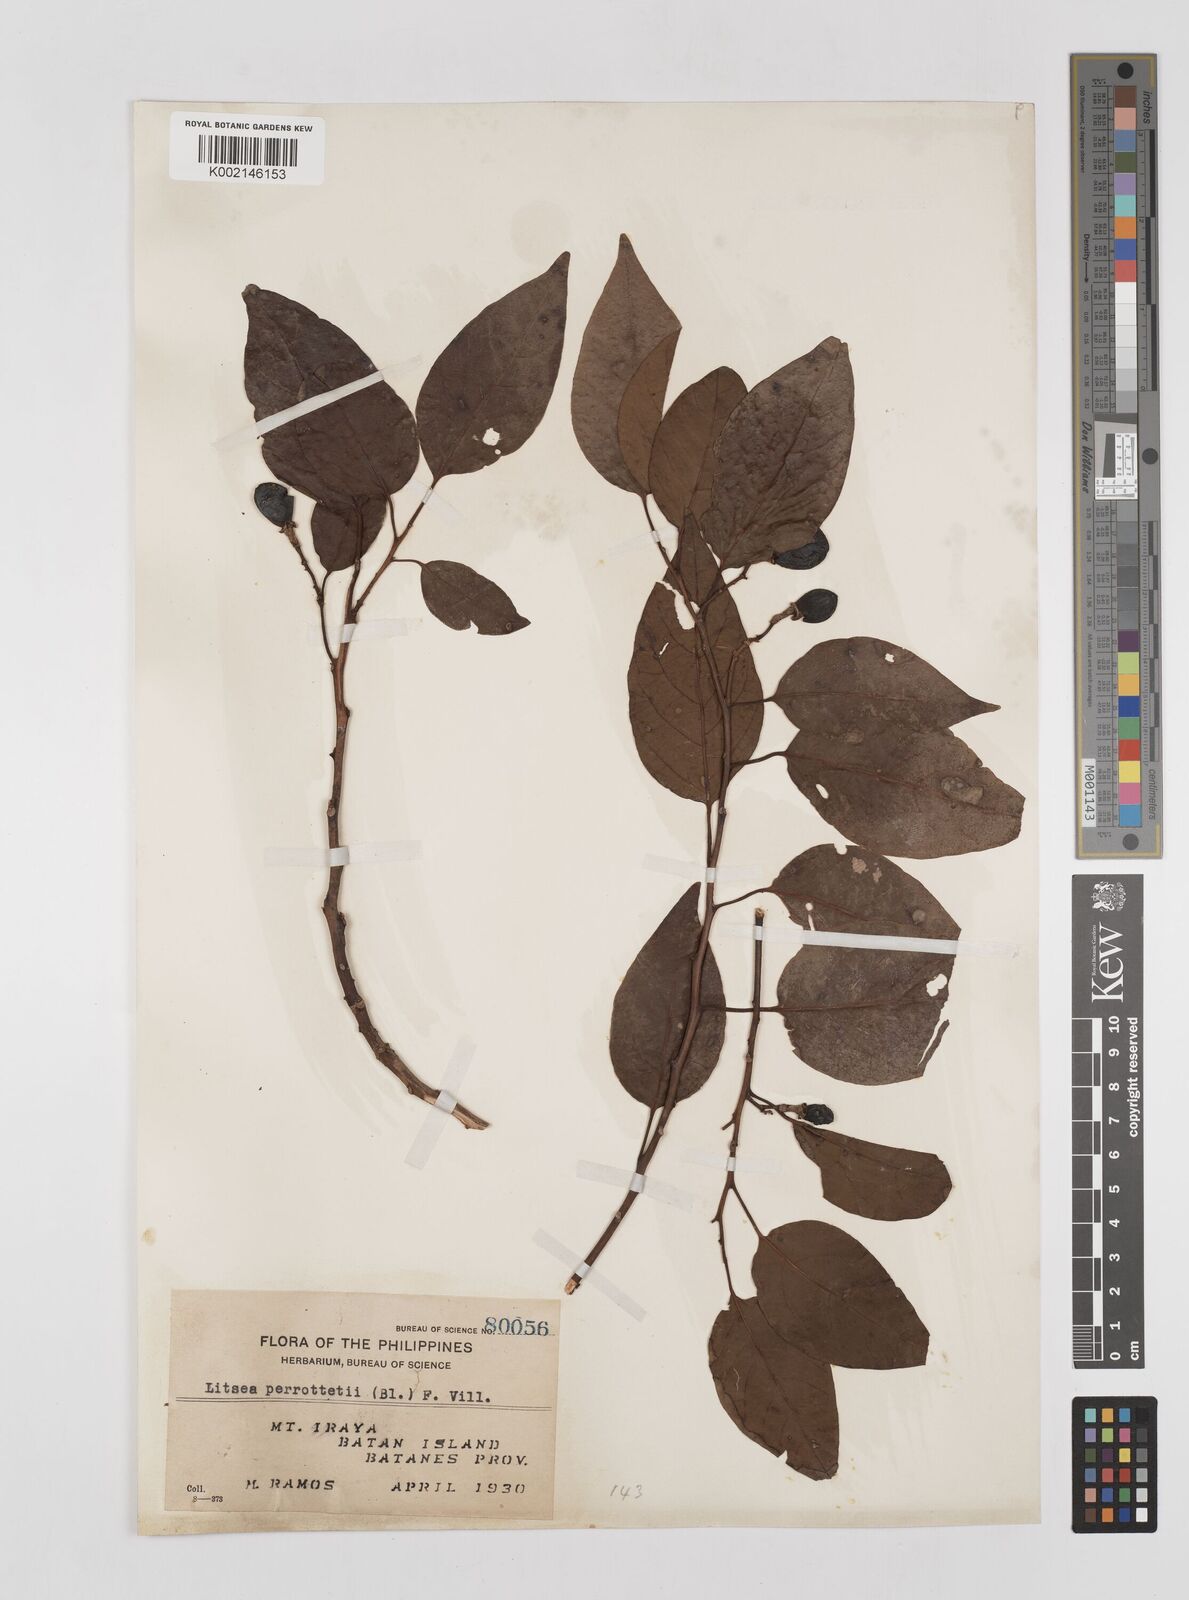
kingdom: Plantae
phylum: Tracheophyta
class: Magnoliopsida
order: Laurales
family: Lauraceae
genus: Litsea
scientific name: Litsea cordata
